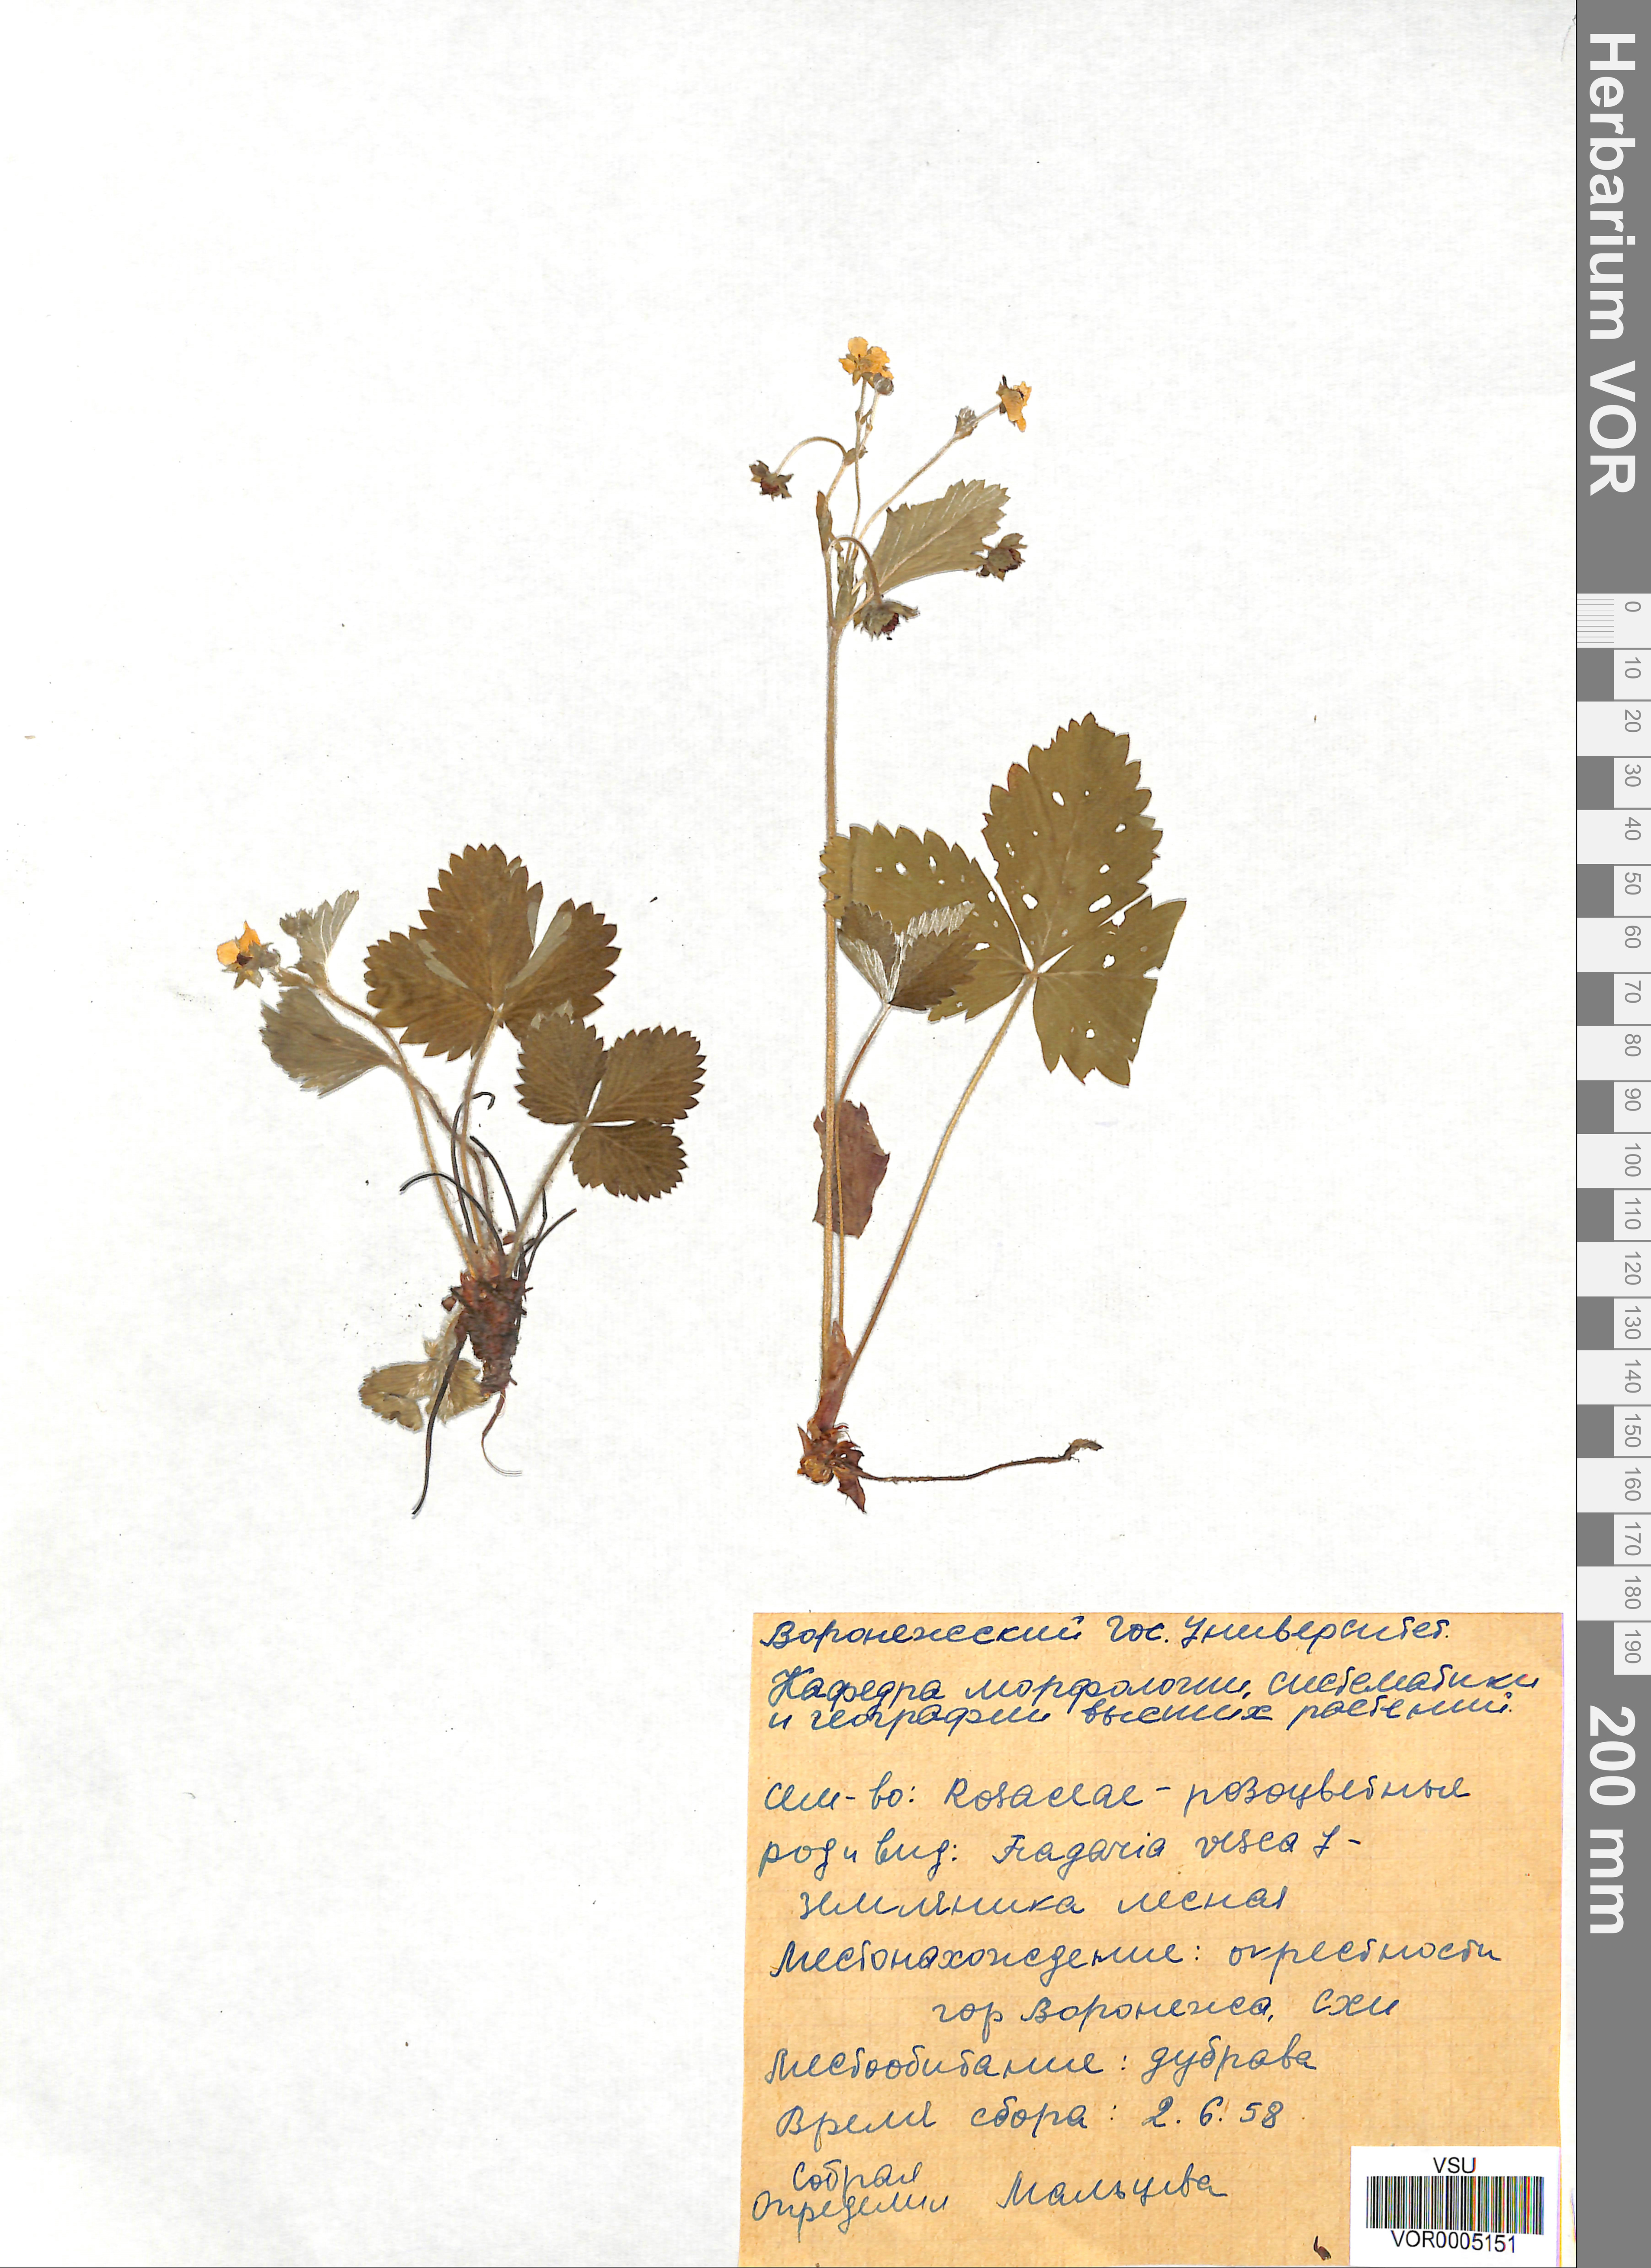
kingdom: Plantae
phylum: Tracheophyta
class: Magnoliopsida
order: Rosales
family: Rosaceae
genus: Fragaria
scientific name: Fragaria vesca
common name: Wild strawberry
